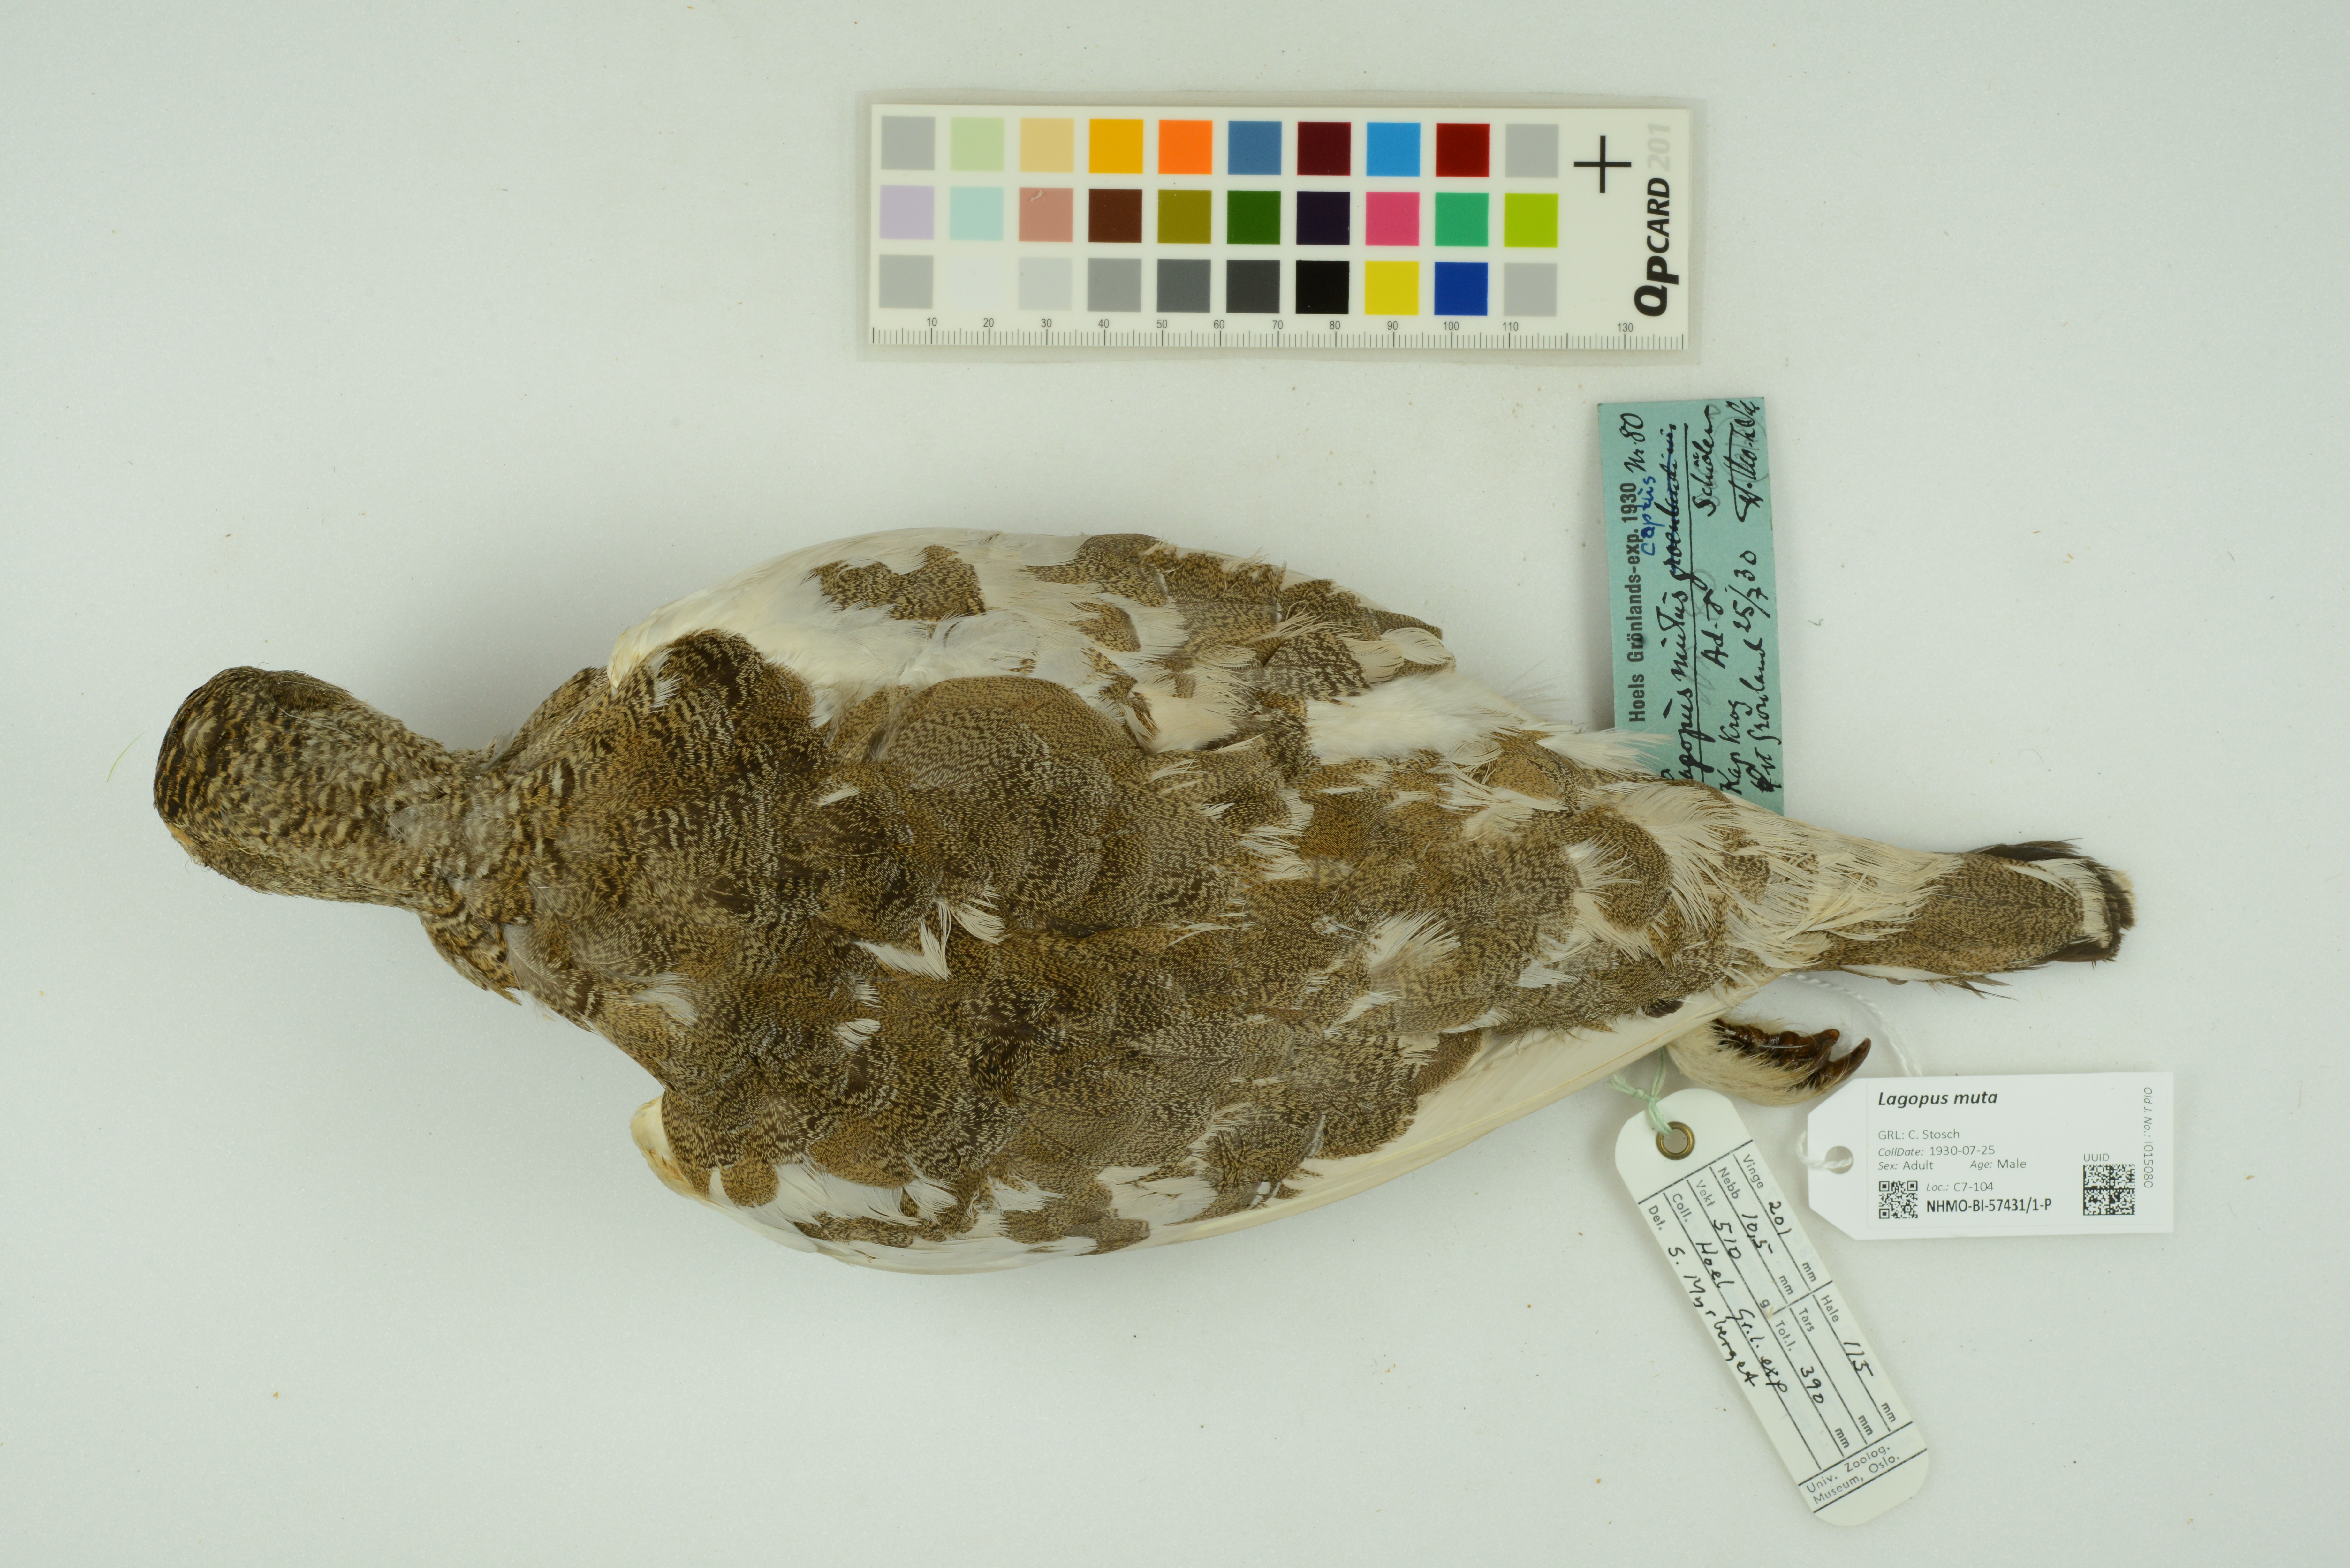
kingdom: Animalia
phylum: Chordata
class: Aves
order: Galliformes
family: Phasianidae
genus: Lagopus
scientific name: Lagopus muta
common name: Rock ptarmigan
